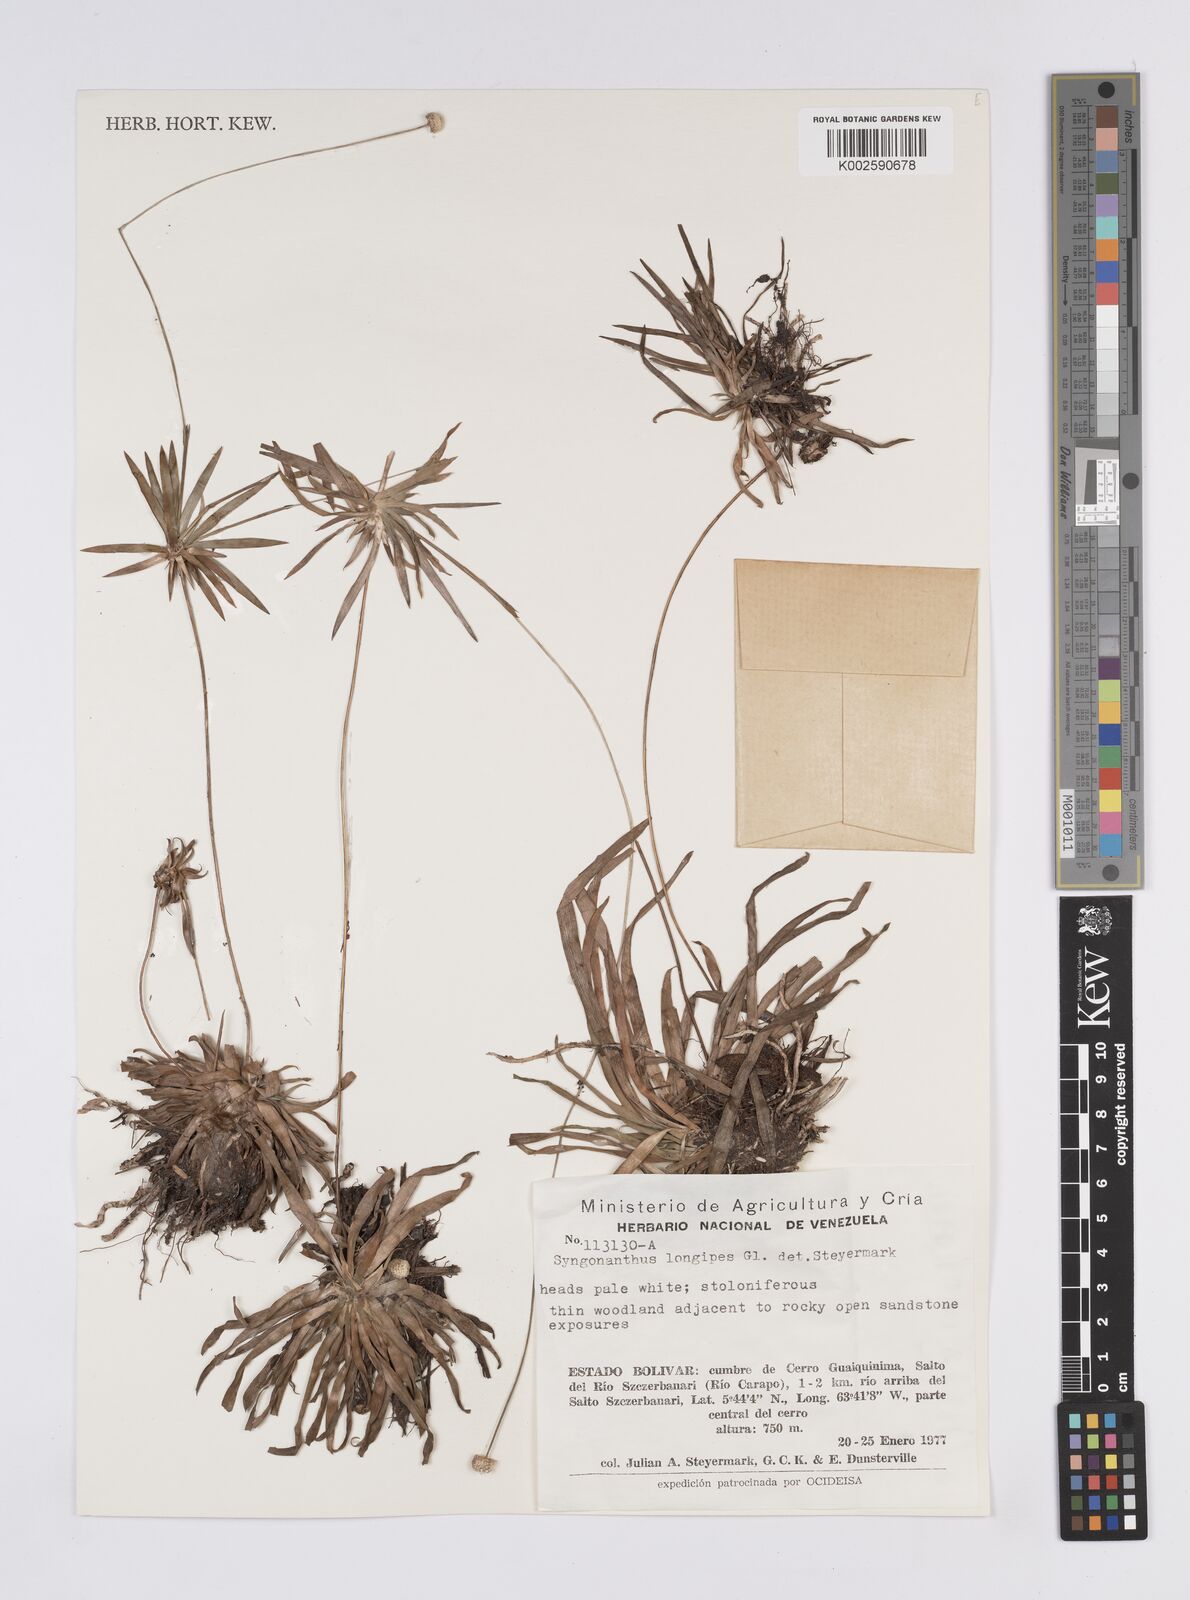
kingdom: Plantae
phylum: Tracheophyta
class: Liliopsida
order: Poales
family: Eriocaulaceae
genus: Syngonanthus
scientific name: Syngonanthus longipes
